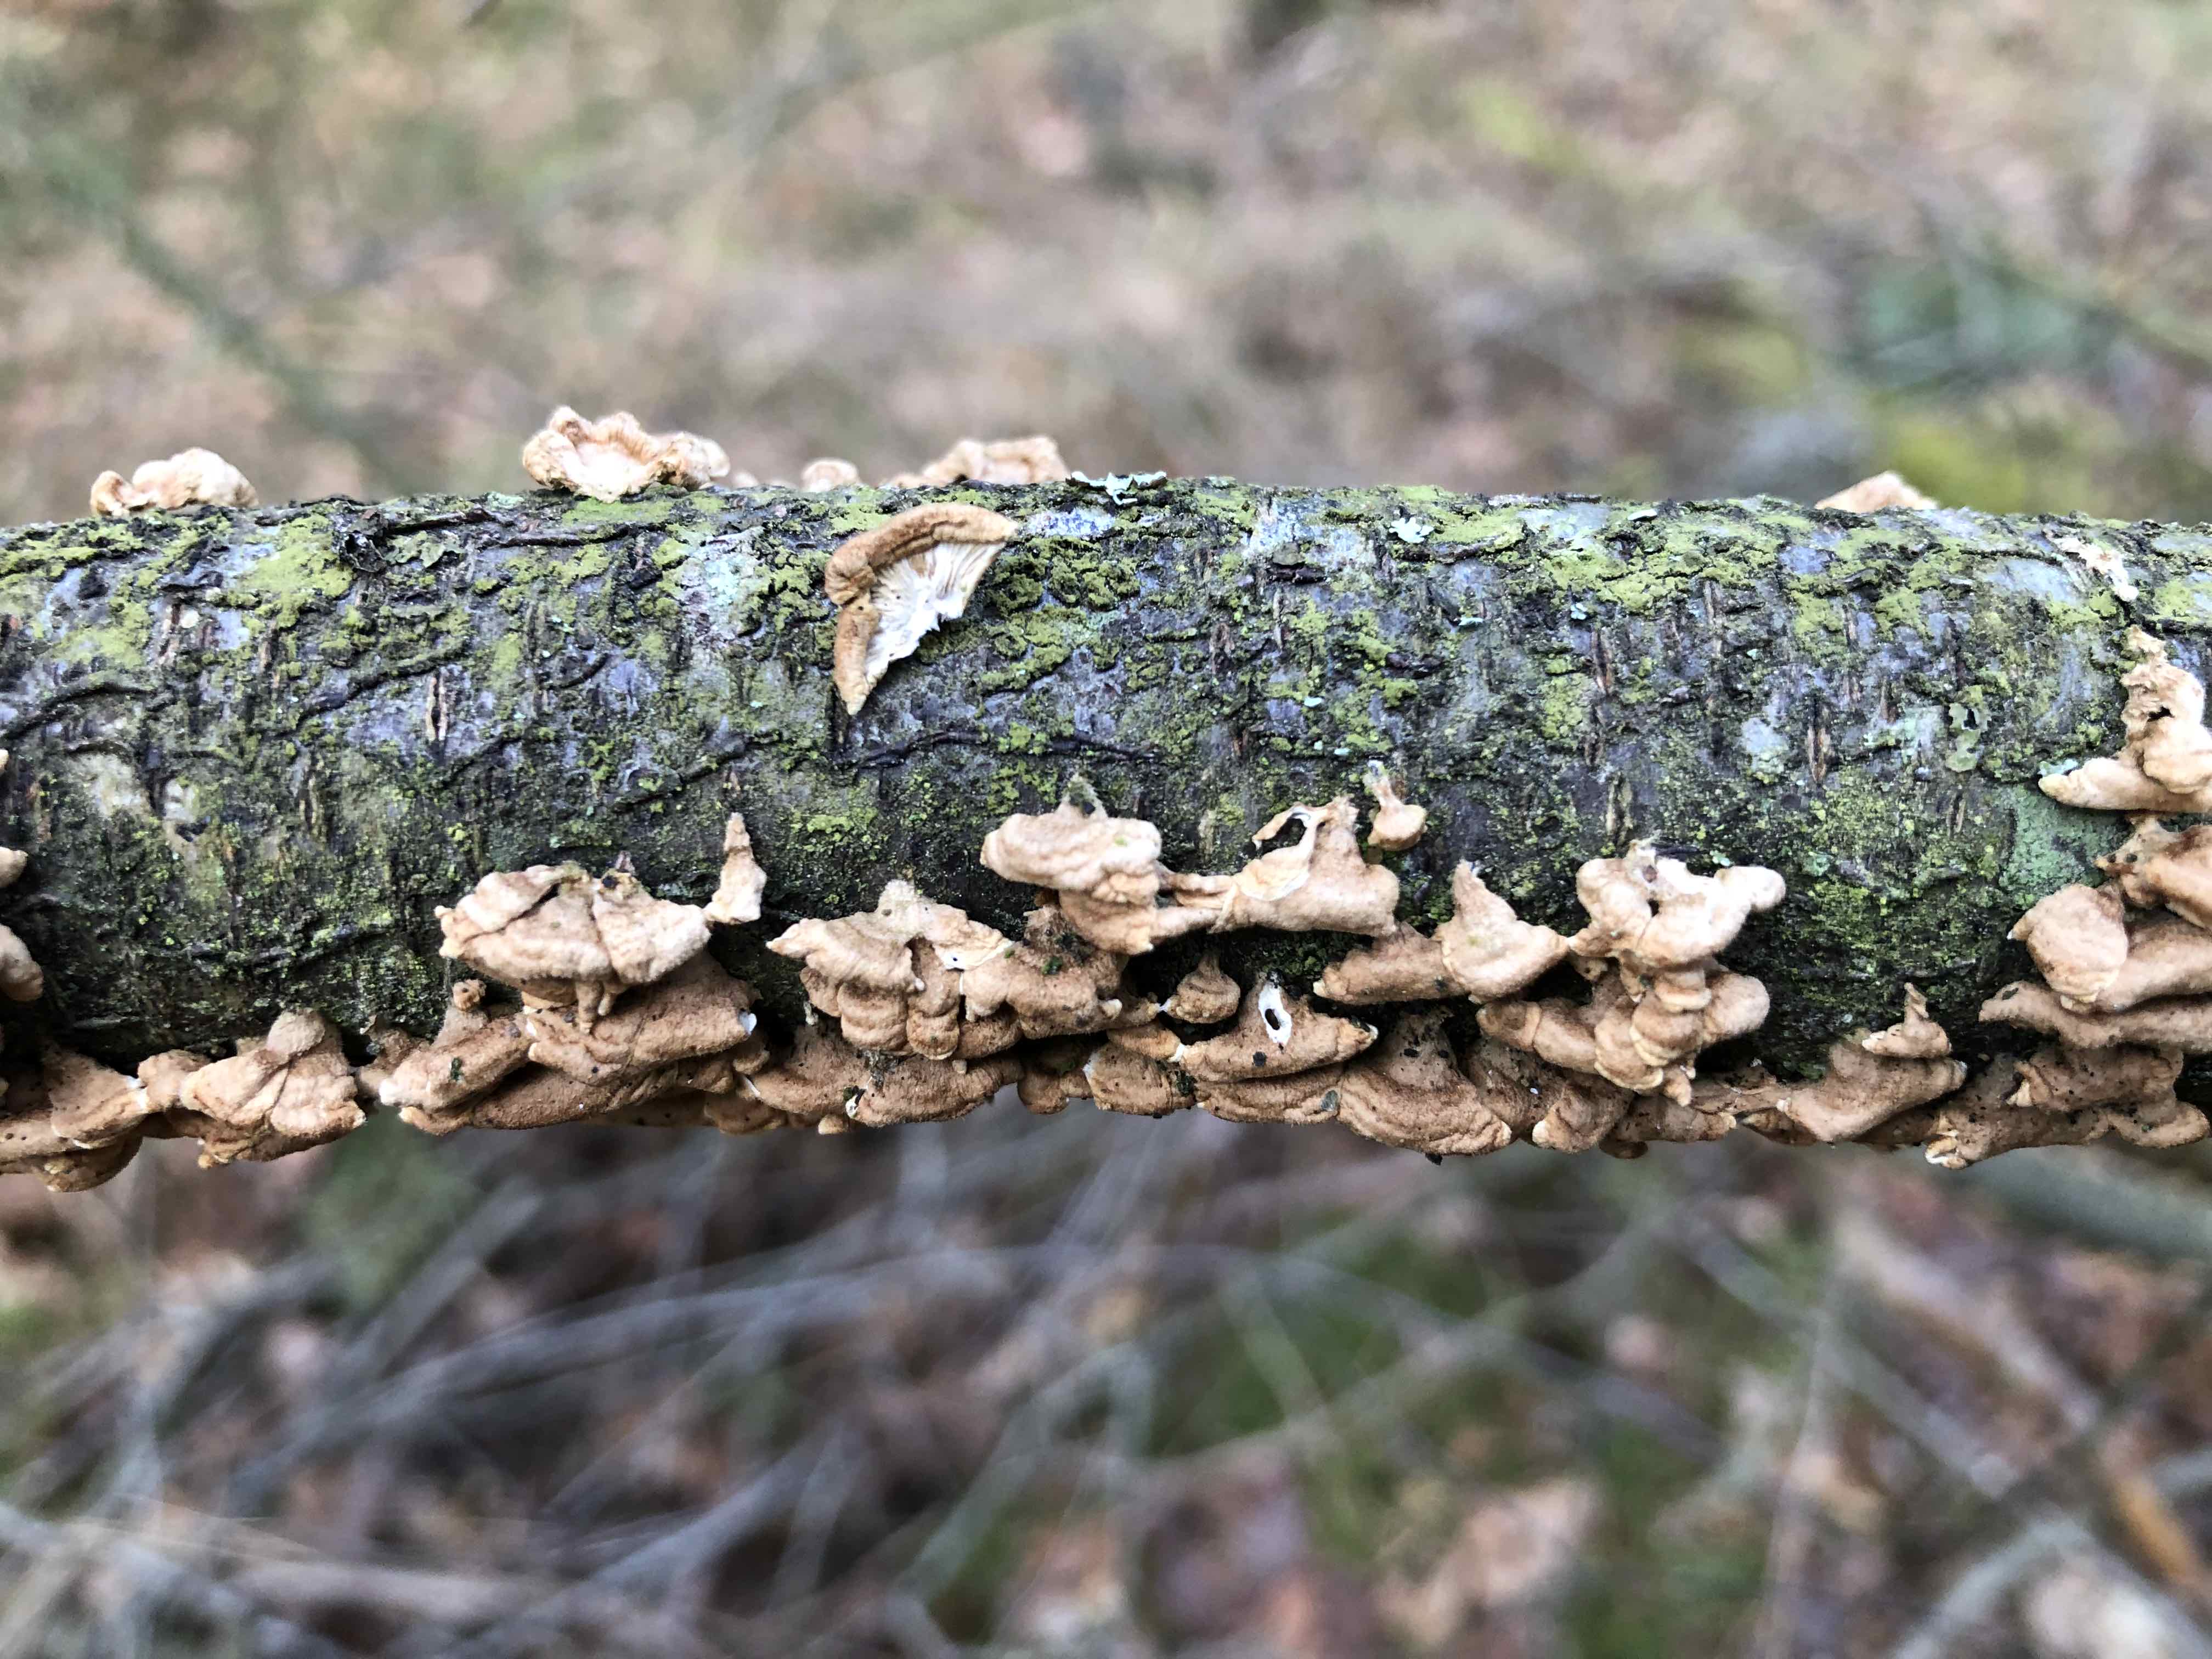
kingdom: Fungi
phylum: Basidiomycota
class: Agaricomycetes
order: Amylocorticiales
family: Amylocorticiaceae
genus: Plicaturopsis
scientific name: Plicaturopsis crispa
